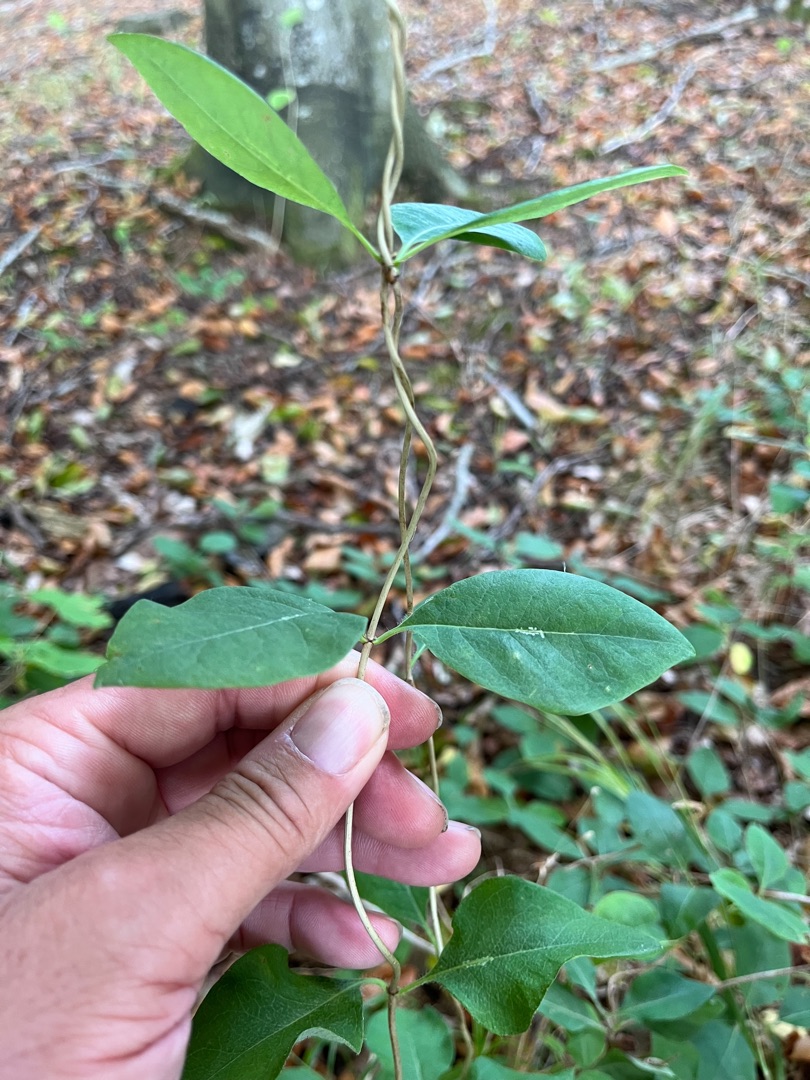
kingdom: Plantae
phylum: Tracheophyta
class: Magnoliopsida
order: Dipsacales
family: Caprifoliaceae
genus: Lonicera
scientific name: Lonicera periclymenum
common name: Almindelig gedeblad
